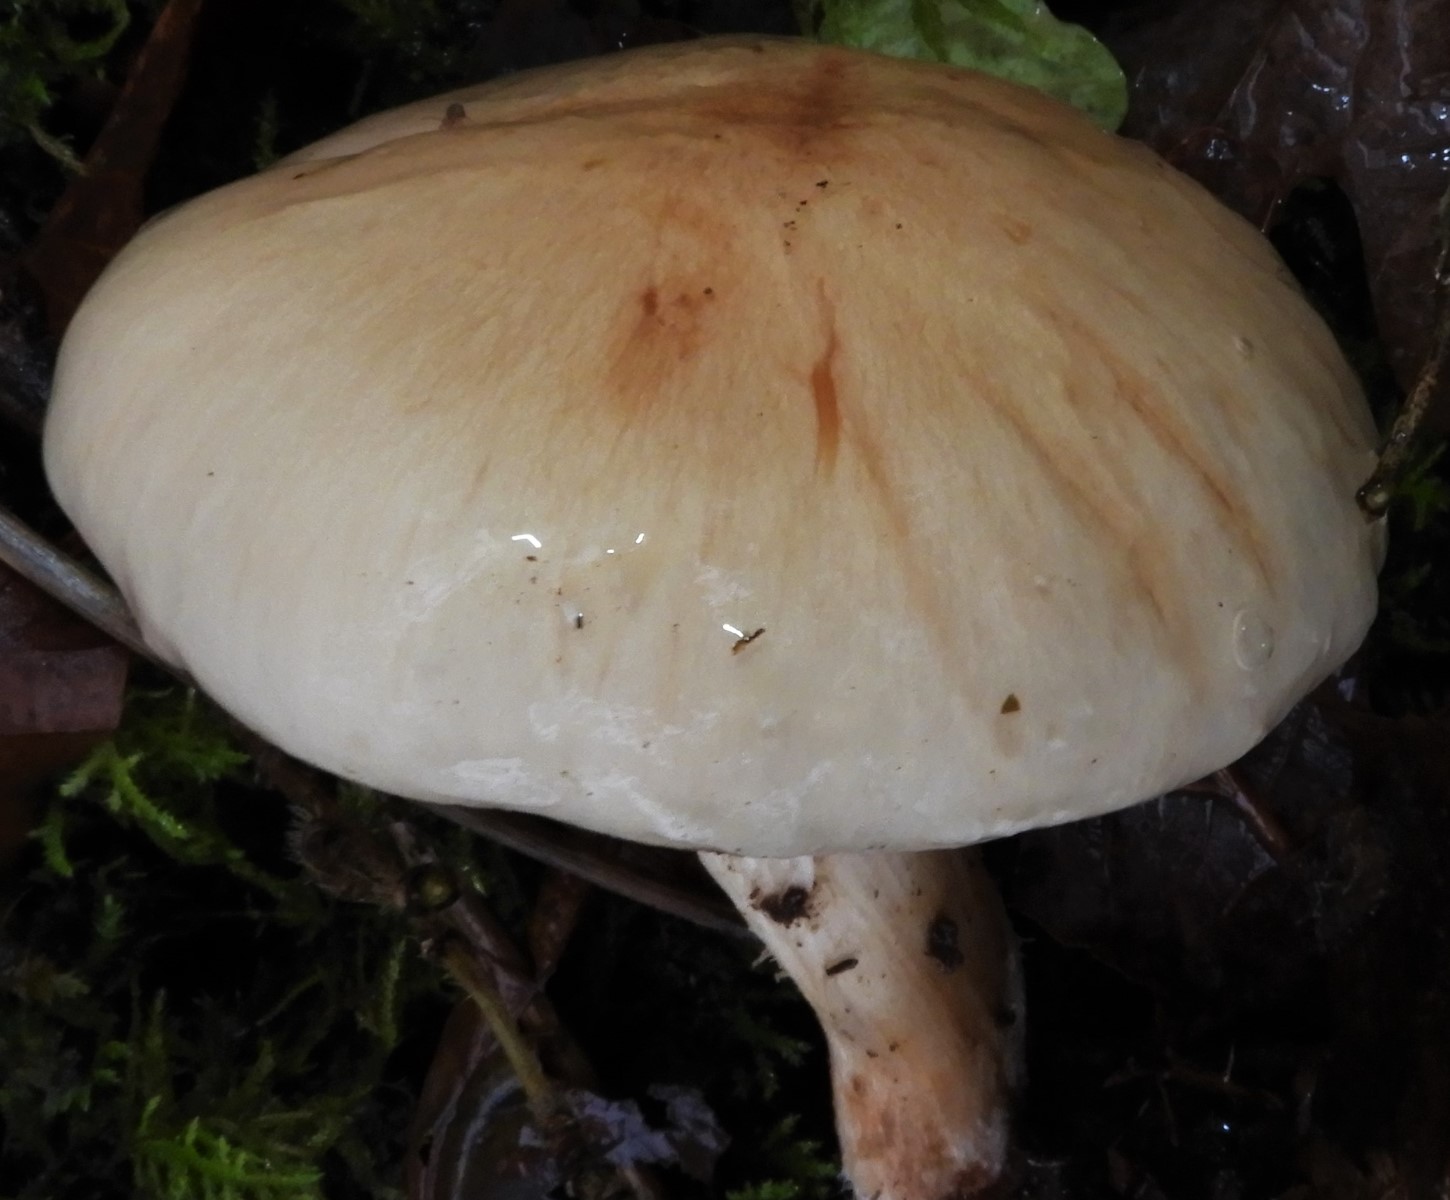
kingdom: Fungi
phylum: Basidiomycota
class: Agaricomycetes
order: Agaricales
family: Strophariaceae
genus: Pholiota
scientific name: Pholiota lenta
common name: løv-skælhat
